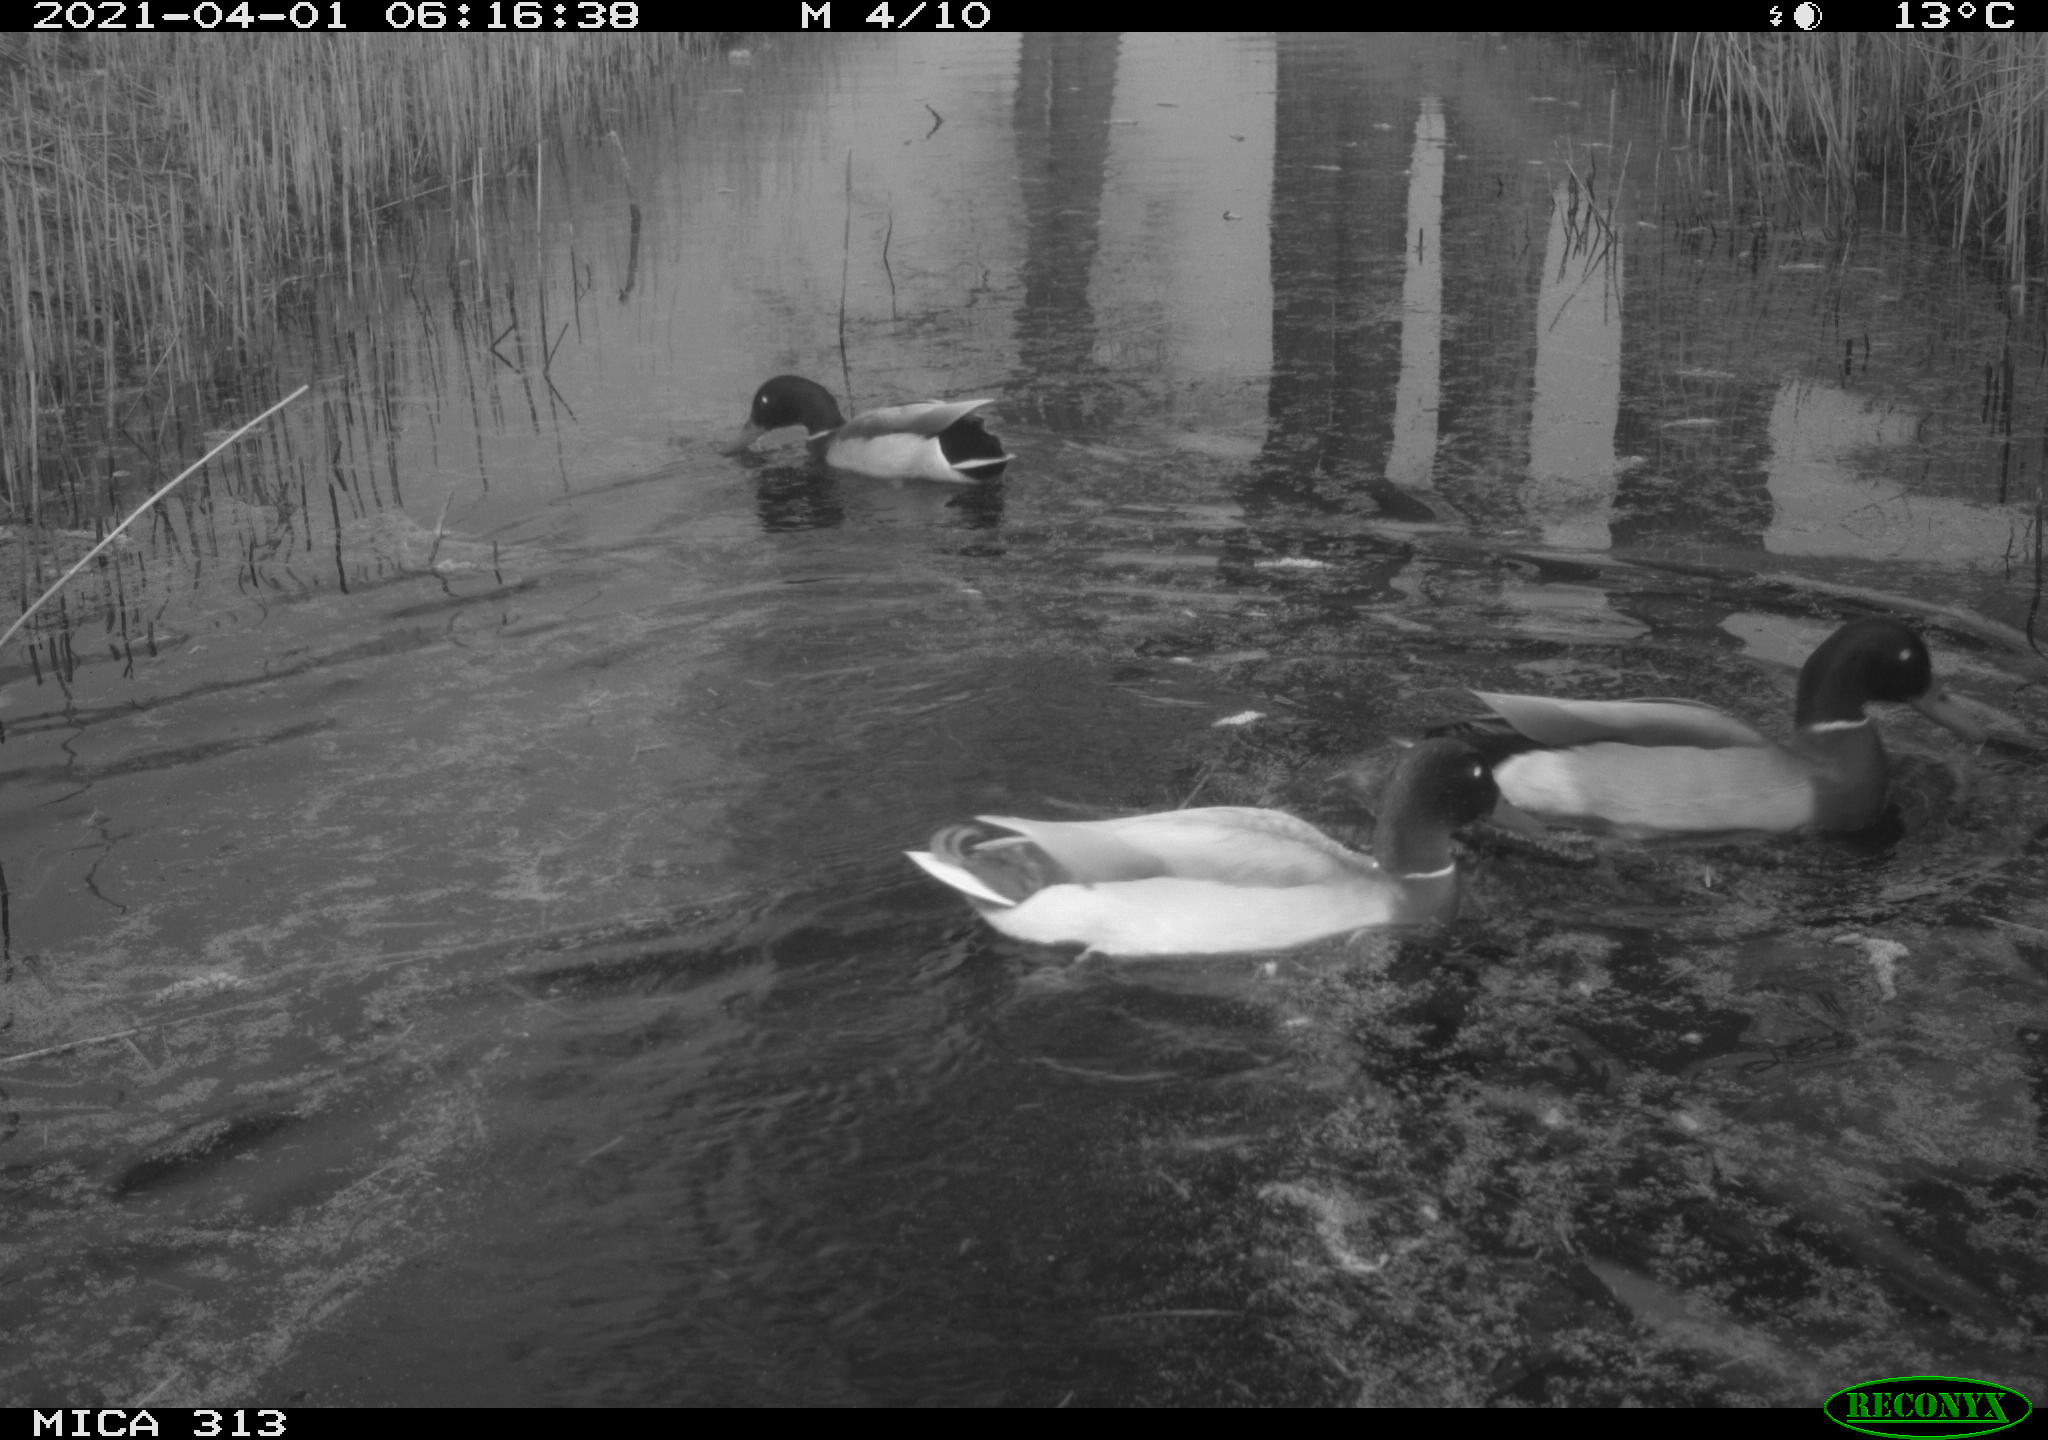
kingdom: Animalia
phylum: Chordata
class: Aves
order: Anseriformes
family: Anatidae
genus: Anas
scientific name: Anas platyrhynchos
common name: Mallard
